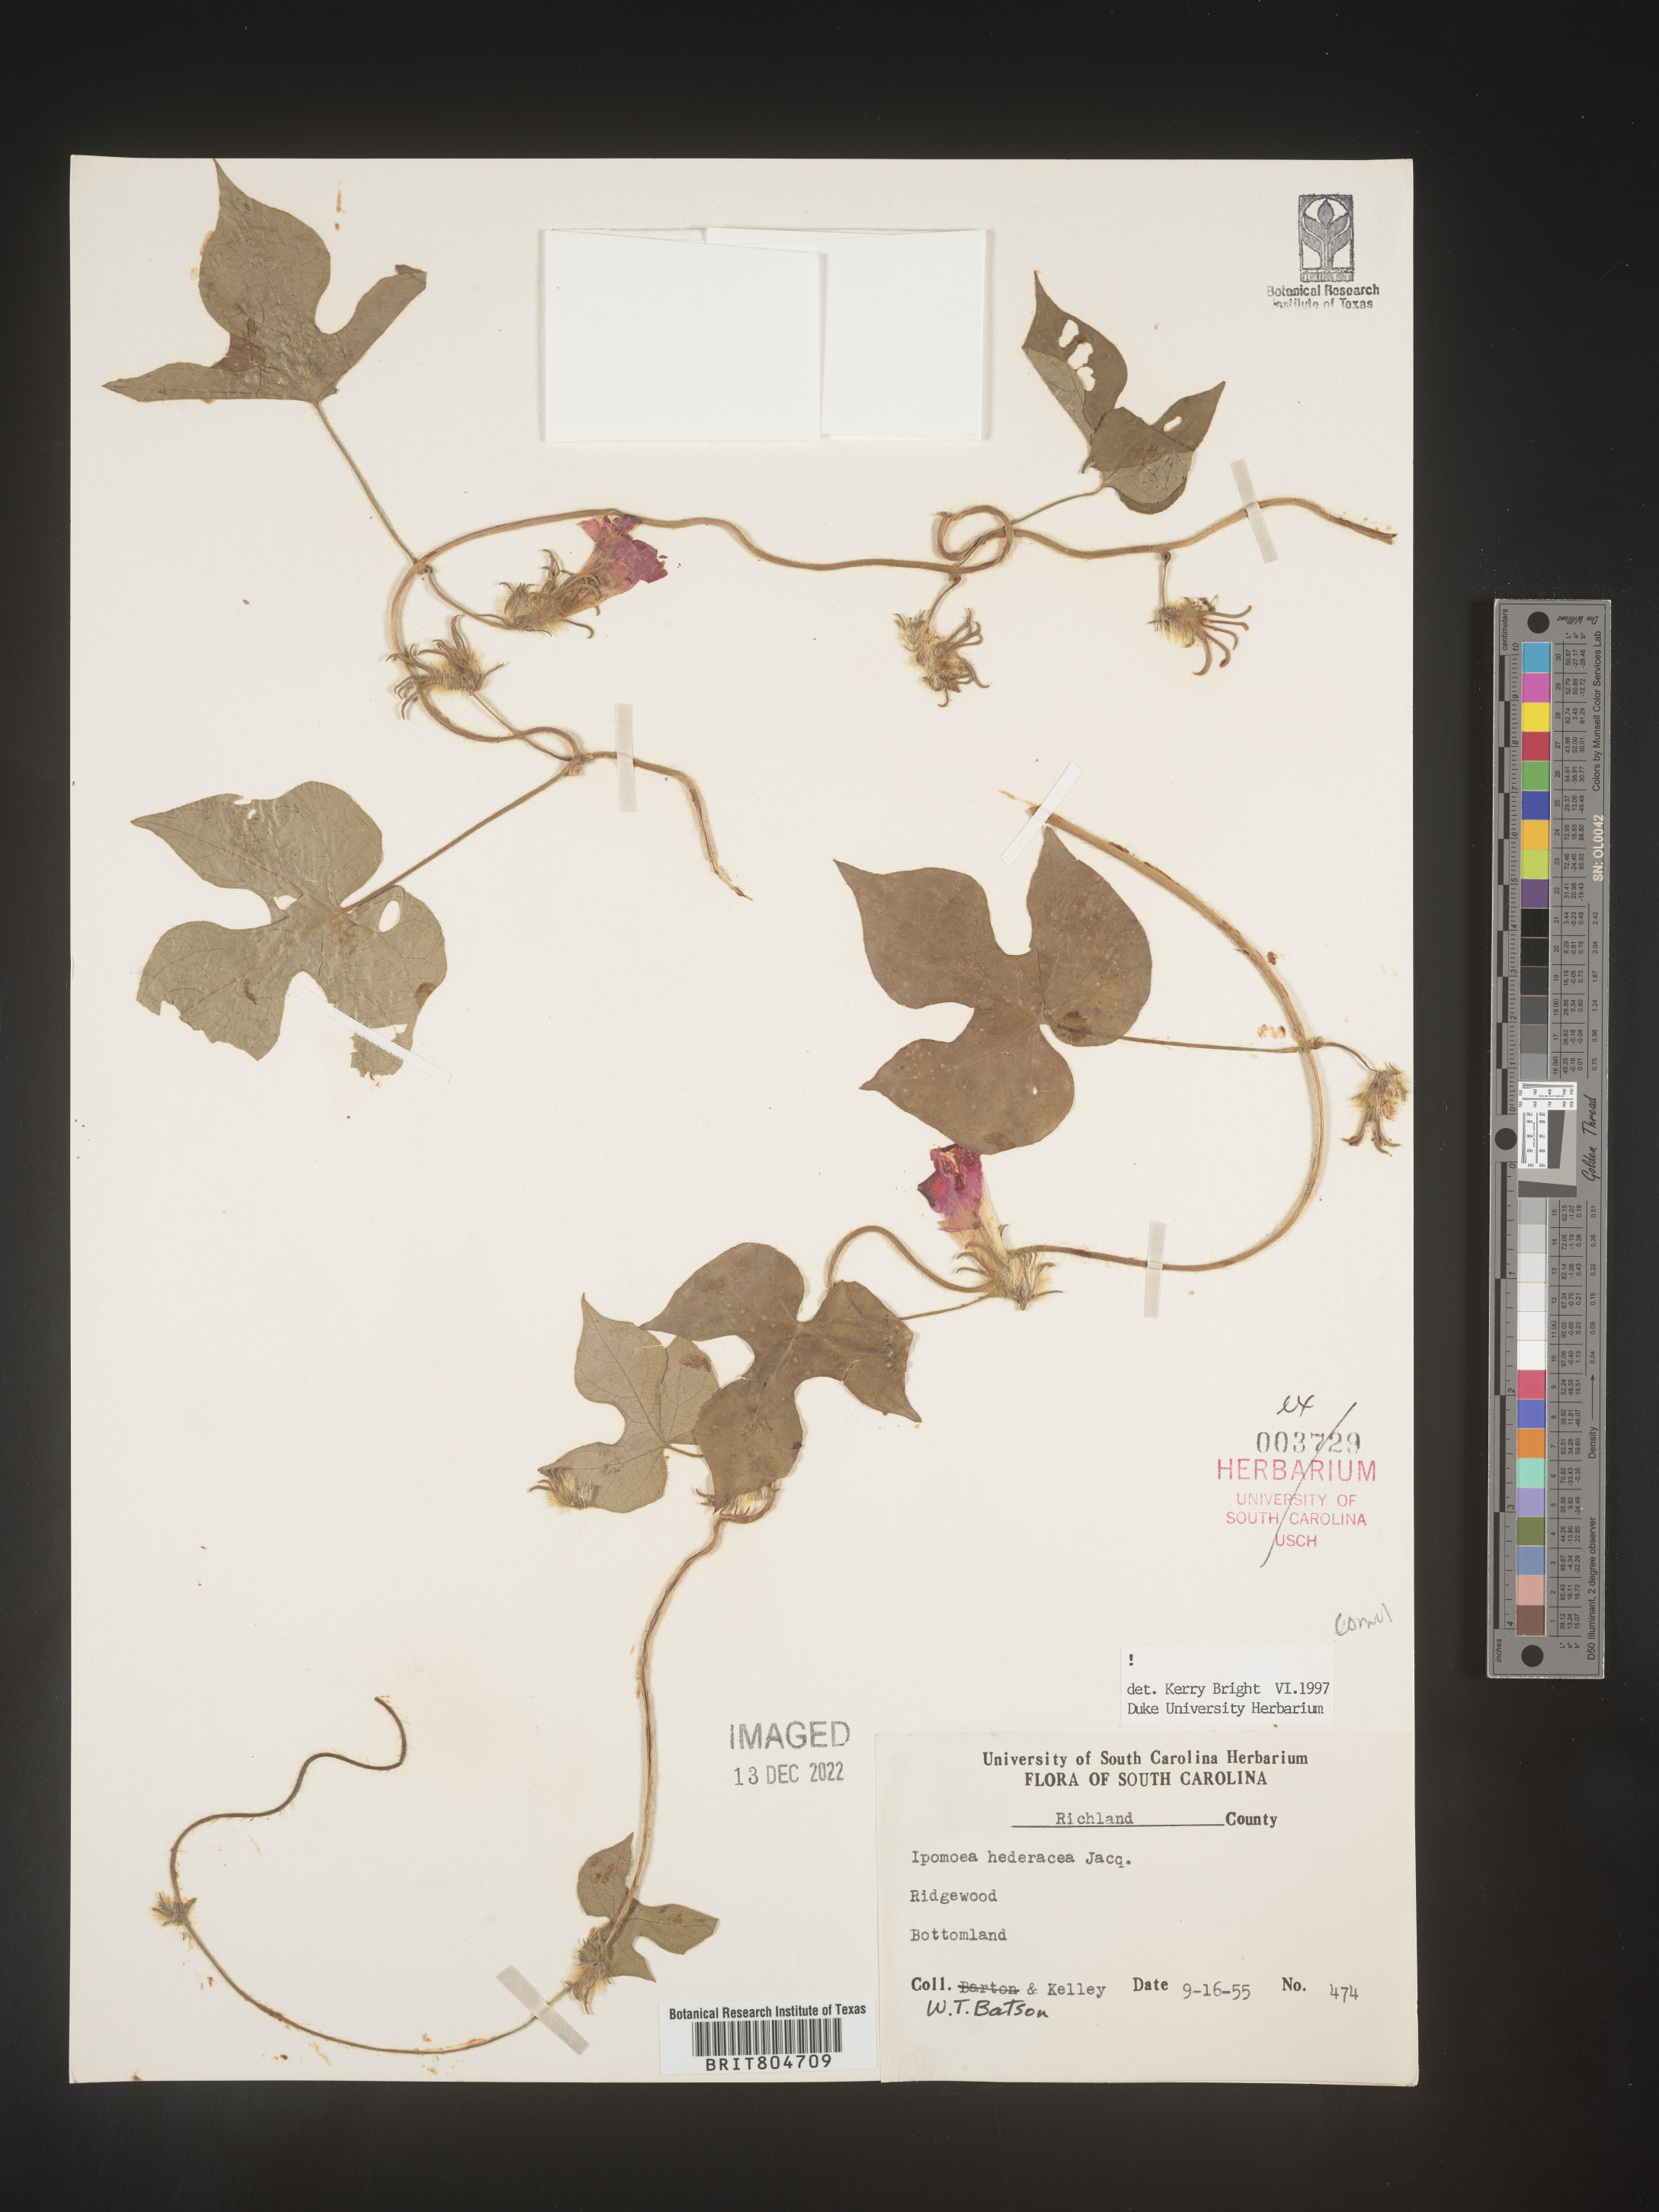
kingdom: Plantae
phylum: Tracheophyta
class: Magnoliopsida
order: Solanales
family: Convolvulaceae
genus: Ipomoea
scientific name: Ipomoea hederacea
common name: Ivy-leaved morning-glory
